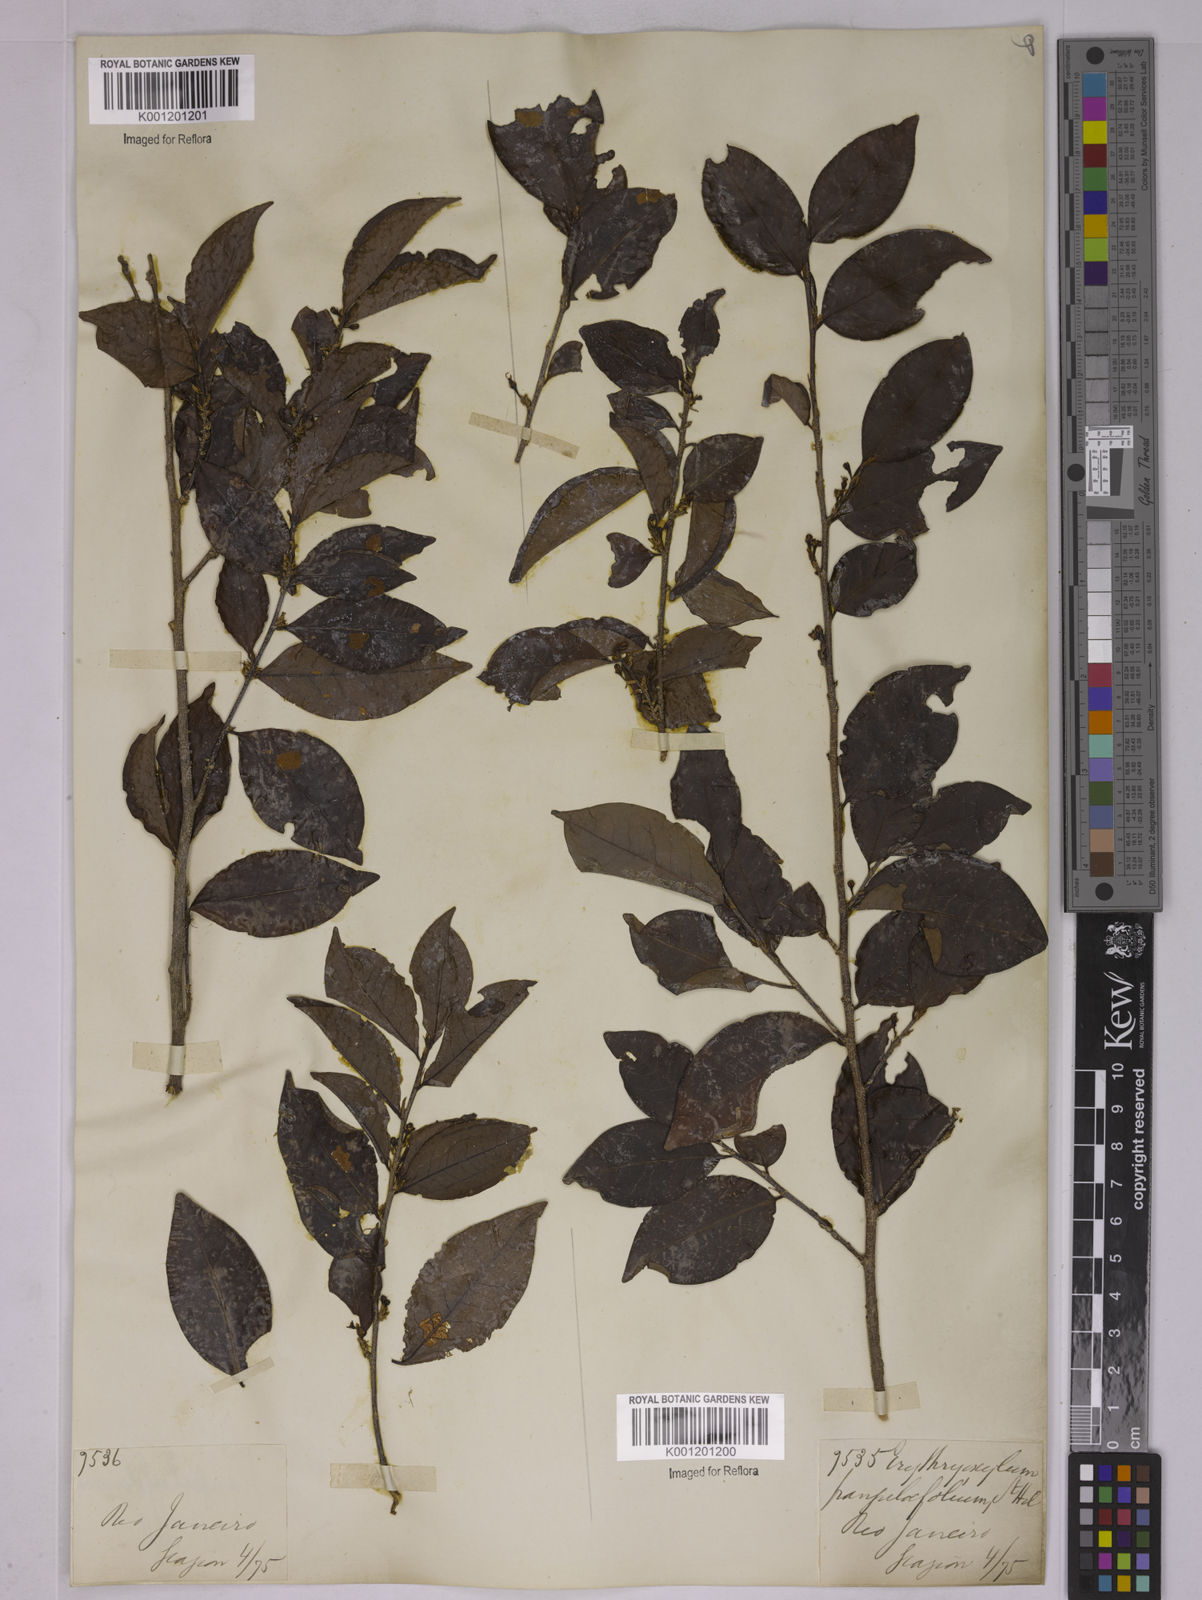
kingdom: Plantae
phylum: Tracheophyta
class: Magnoliopsida
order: Malpighiales
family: Erythroxylaceae
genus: Erythroxylum
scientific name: Erythroxylum frangulifolium
